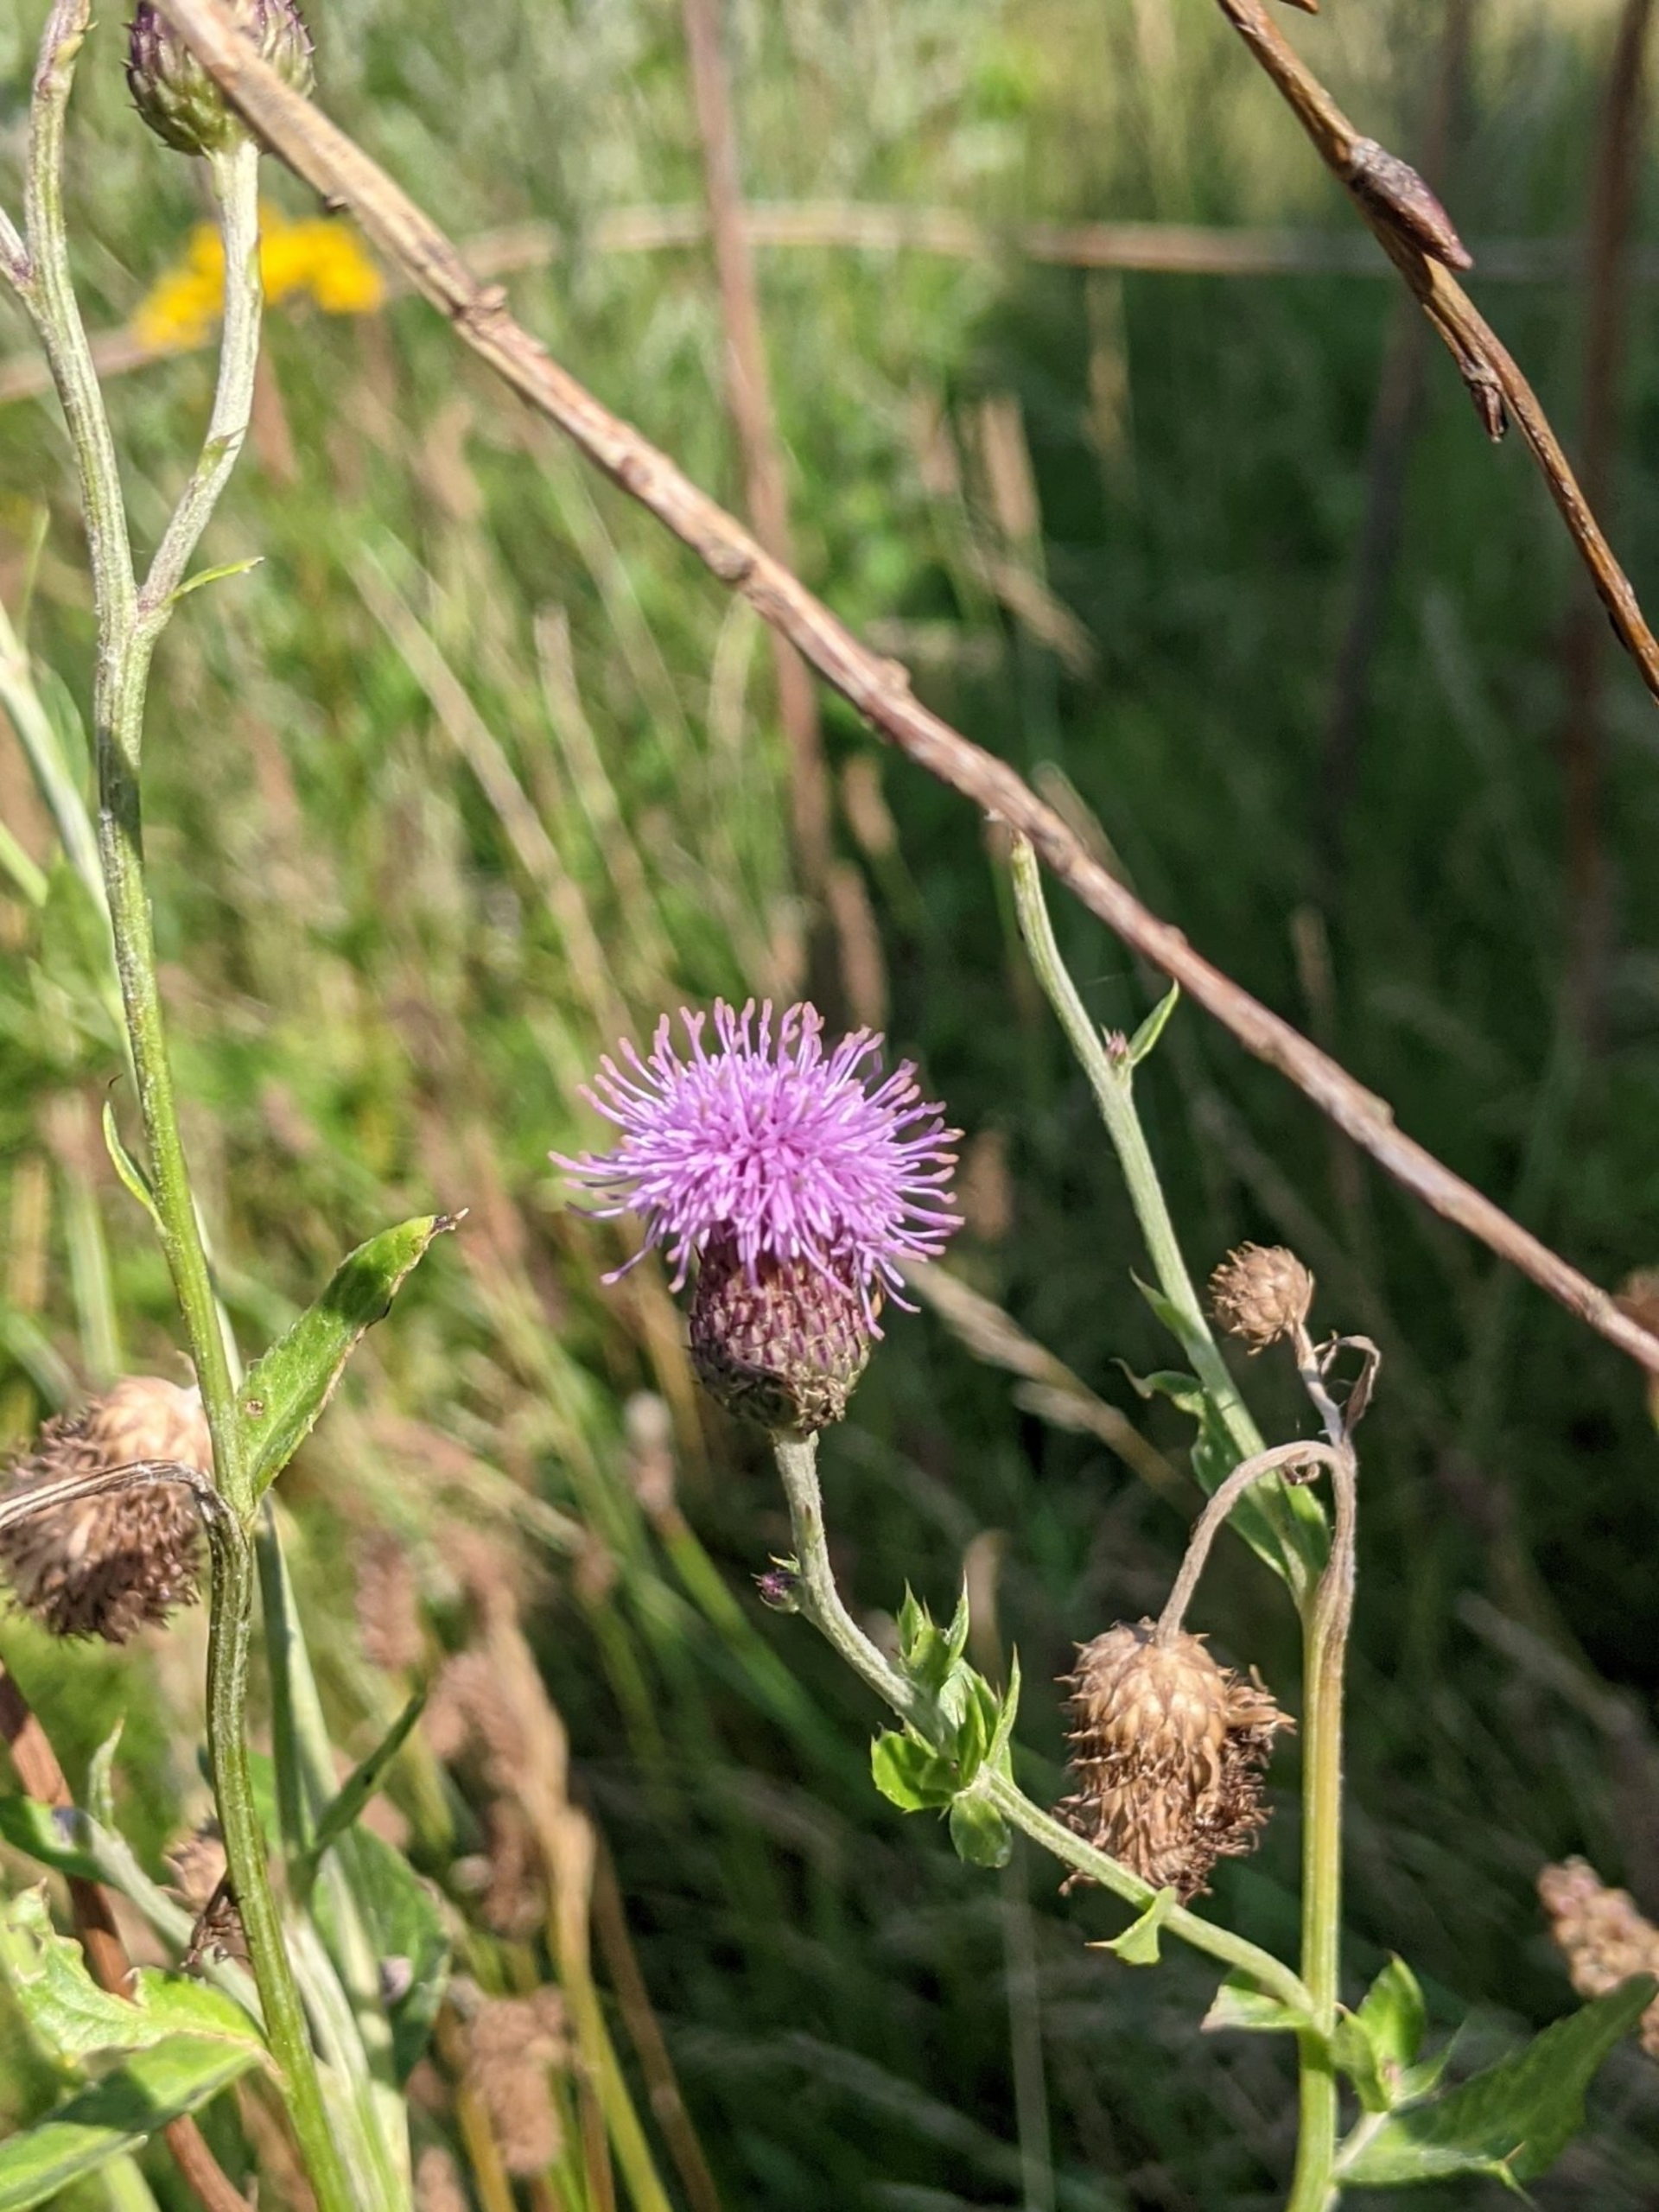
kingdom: Plantae
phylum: Tracheophyta
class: Magnoliopsida
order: Asterales
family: Asteraceae
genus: Cirsium
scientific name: Cirsium arvense
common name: Ager-tidsel
